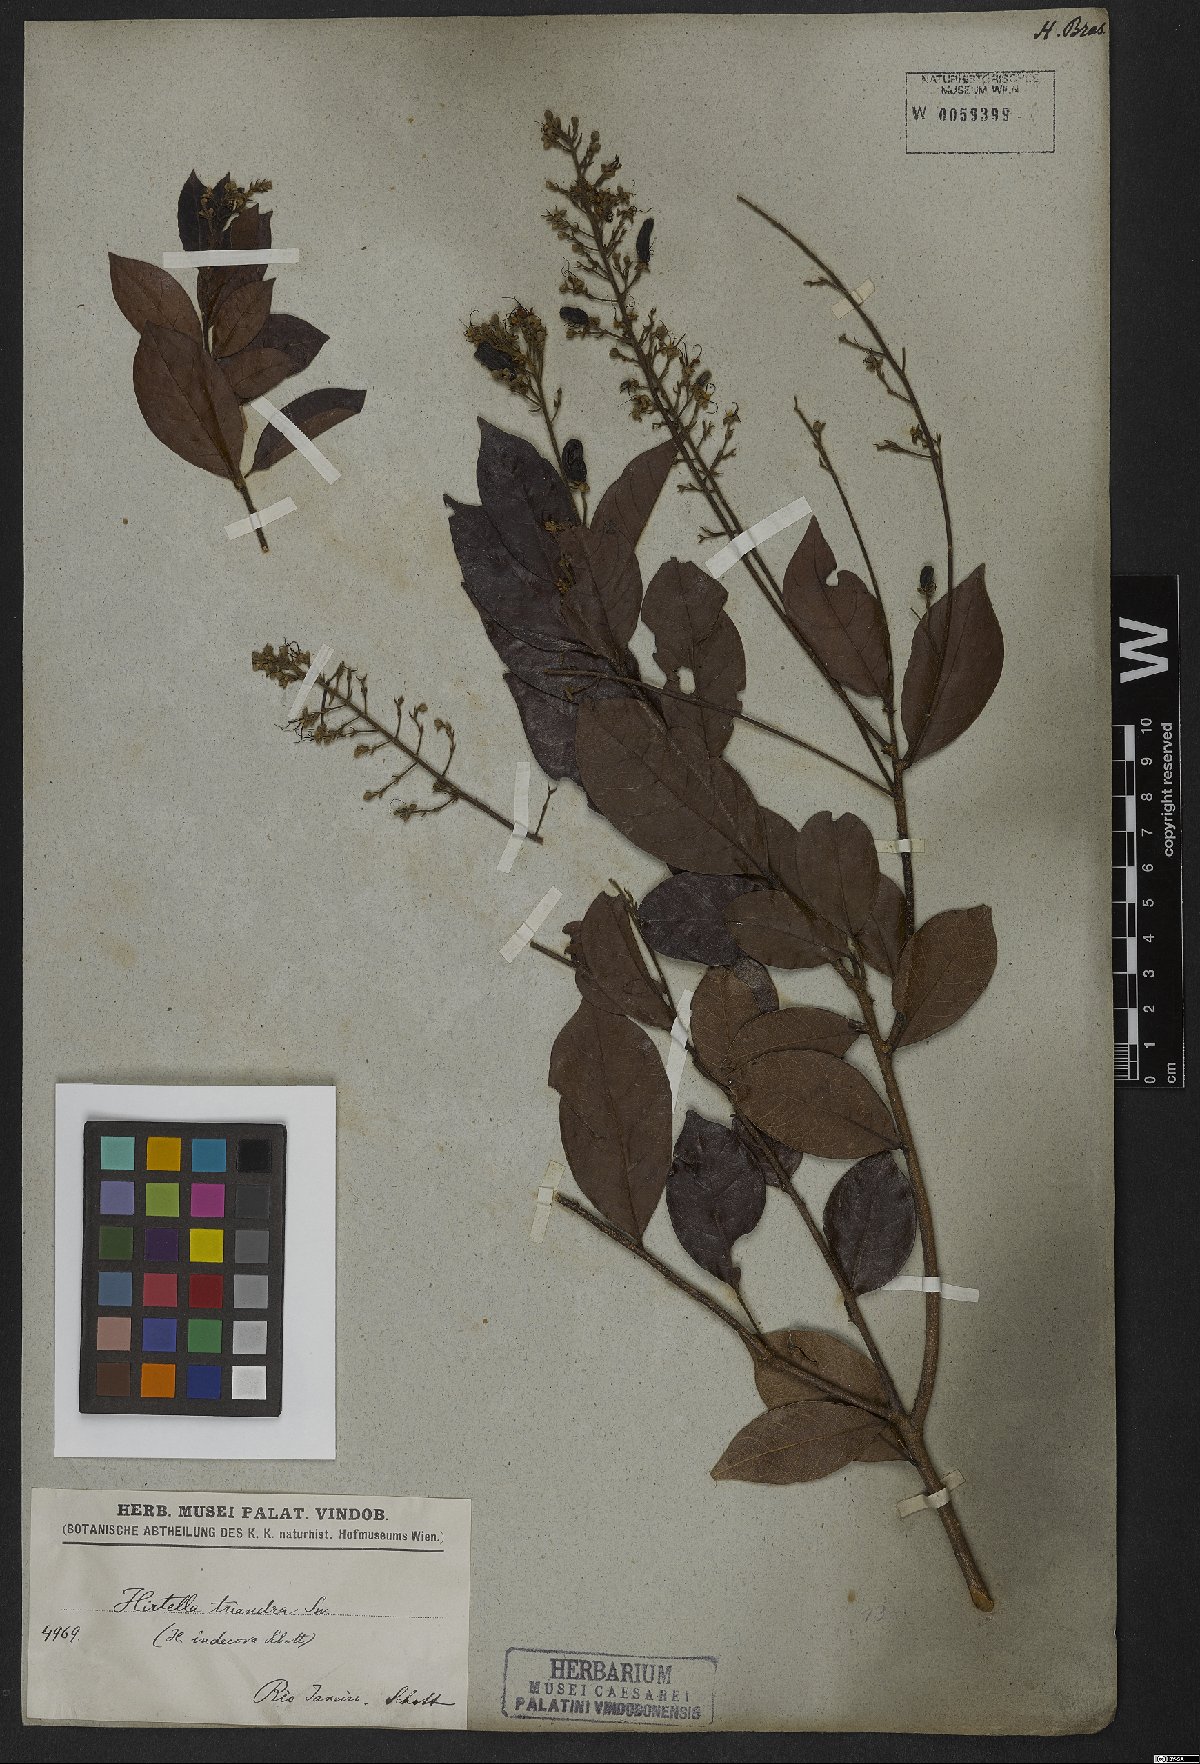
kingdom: Plantae
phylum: Tracheophyta
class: Magnoliopsida
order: Malpighiales
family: Chrysobalanaceae
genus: Hirtella
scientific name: Hirtella triandra
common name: Hairy plum
